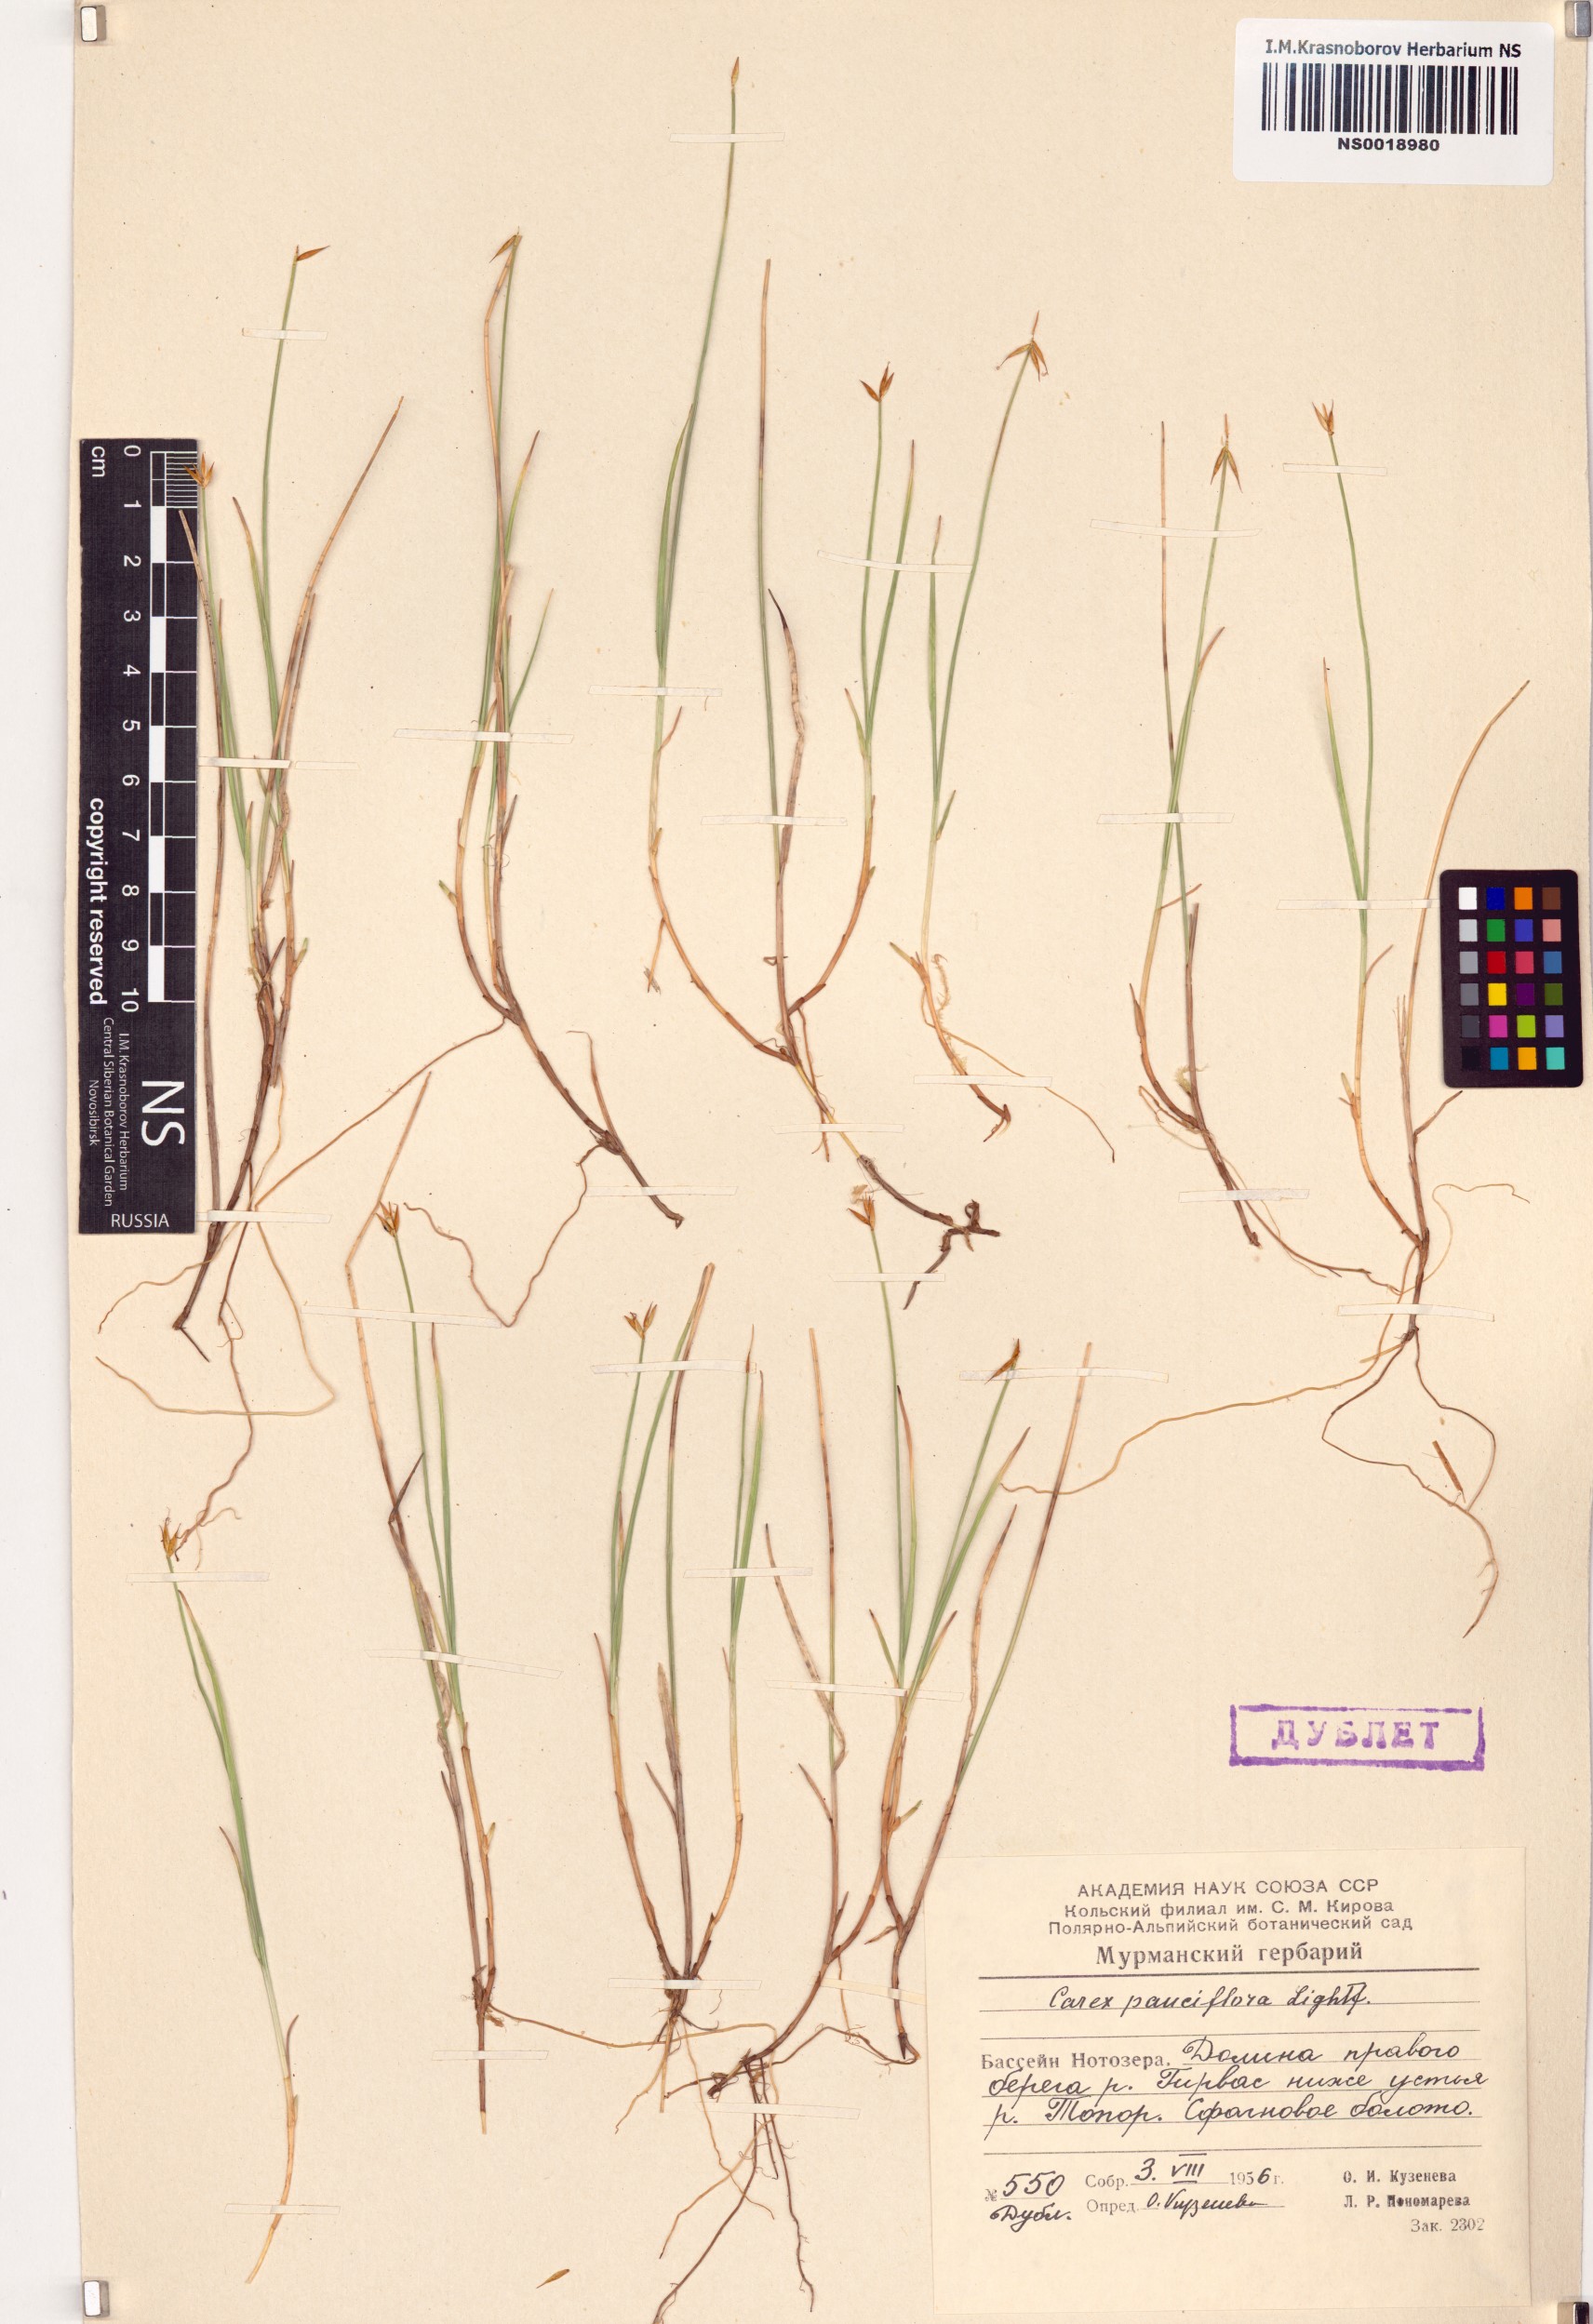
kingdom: Plantae
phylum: Tracheophyta
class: Liliopsida
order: Poales
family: Cyperaceae
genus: Carex
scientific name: Carex pauciflora
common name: Few-flowered sedge
